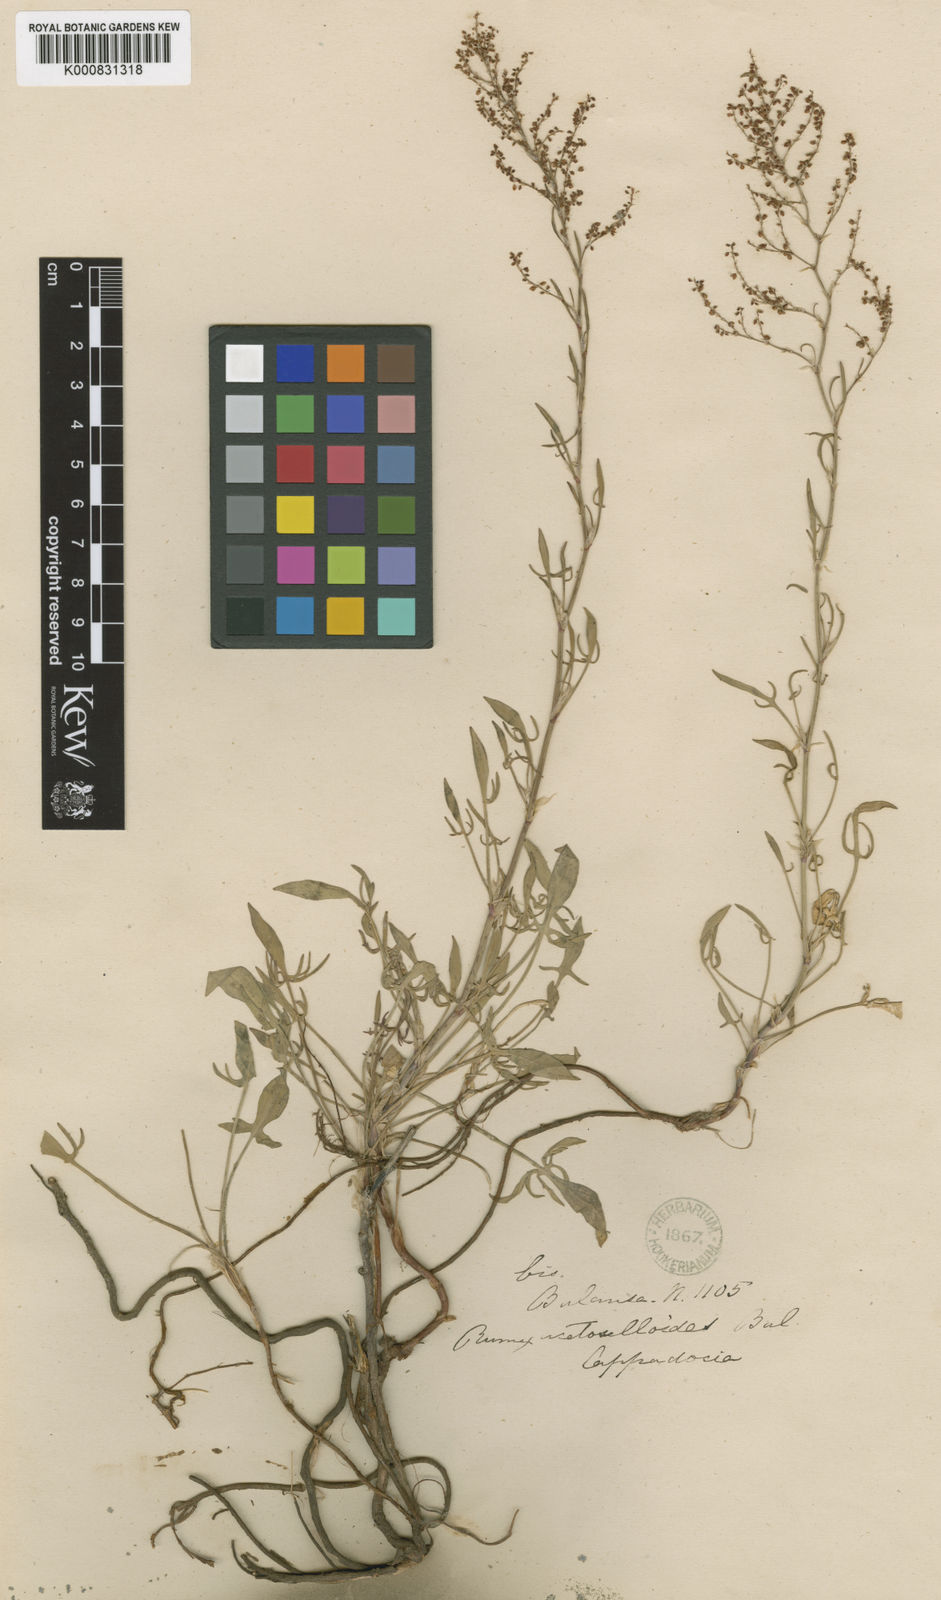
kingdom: Plantae
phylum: Tracheophyta
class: Magnoliopsida
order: Caryophyllales
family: Polygonaceae
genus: Rumex
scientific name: Rumex acetosella
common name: Common sheep sorrel
